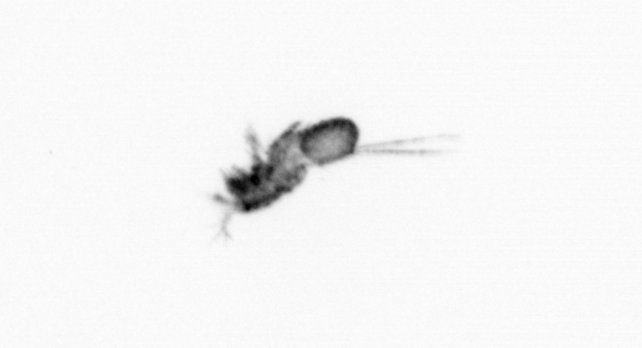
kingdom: Animalia
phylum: Arthropoda
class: Copepoda
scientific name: Copepoda
